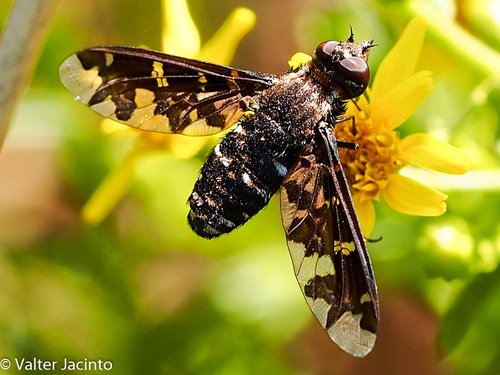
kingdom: Animalia
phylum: Arthropoda
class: Insecta
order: Diptera
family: Bombyliidae
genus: Exoprosopa
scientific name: Exoprosopa jacchus
